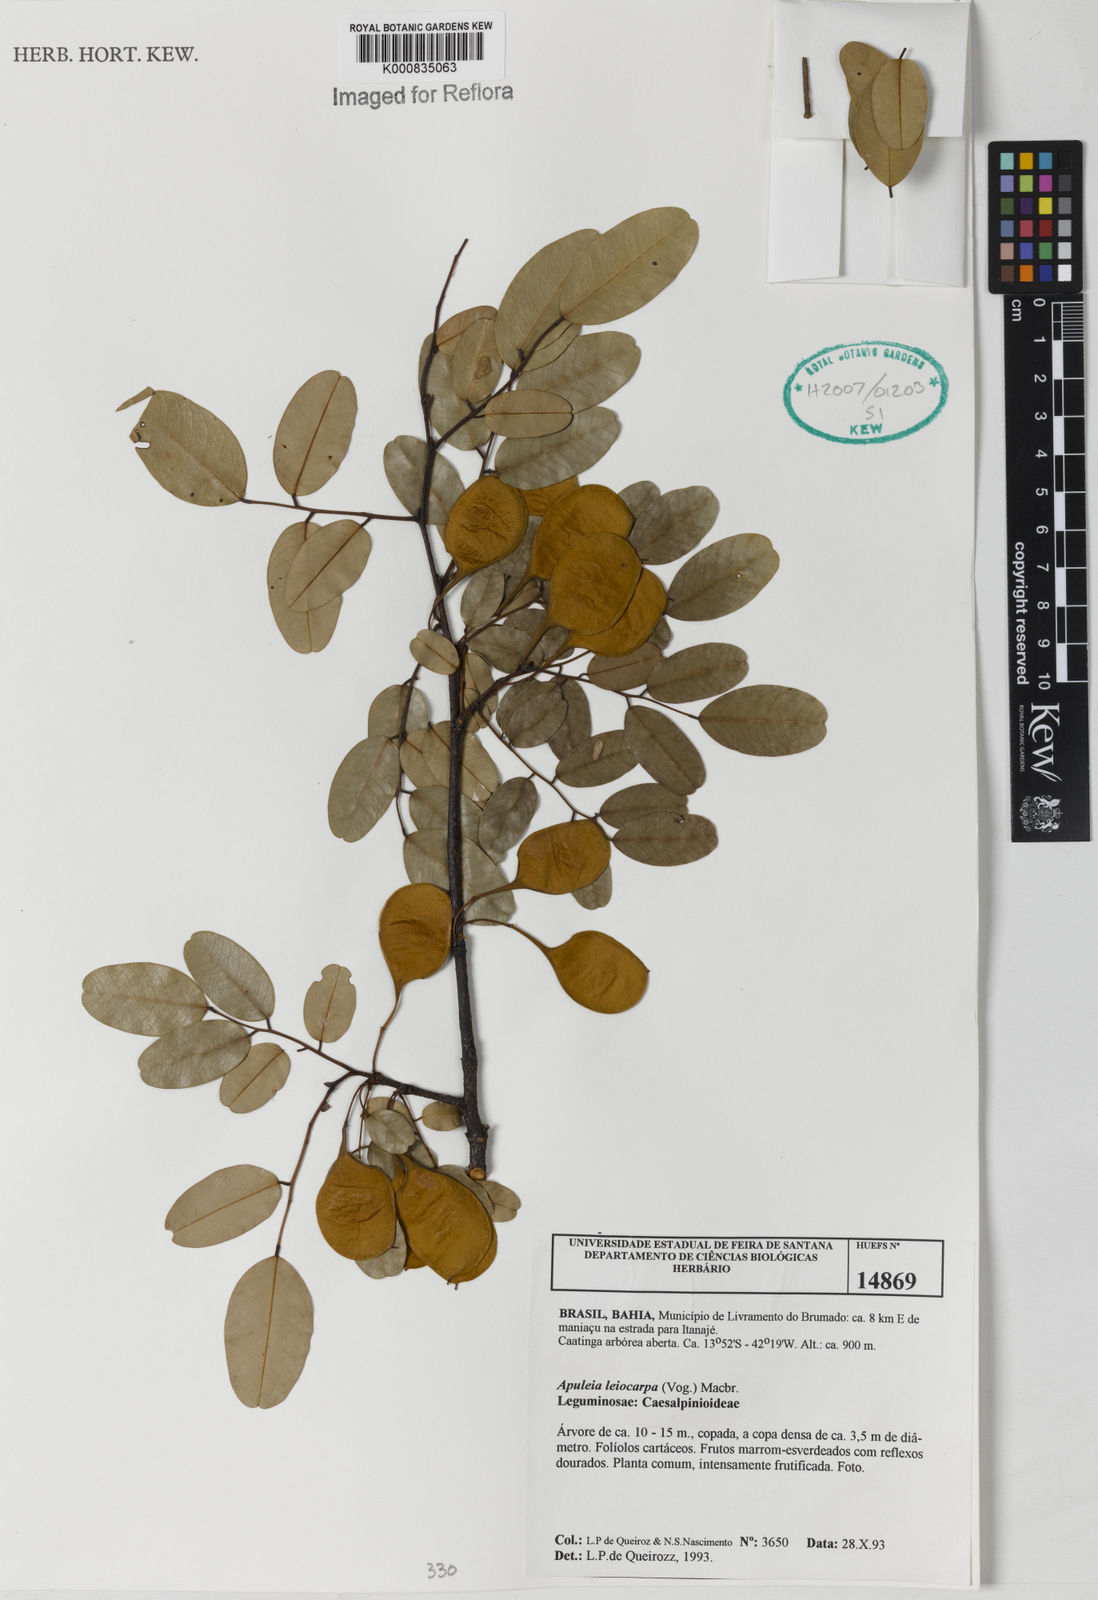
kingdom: Plantae
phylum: Tracheophyta
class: Magnoliopsida
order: Fabales
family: Fabaceae
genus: Apuleia
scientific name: Apuleia leiocarpa
